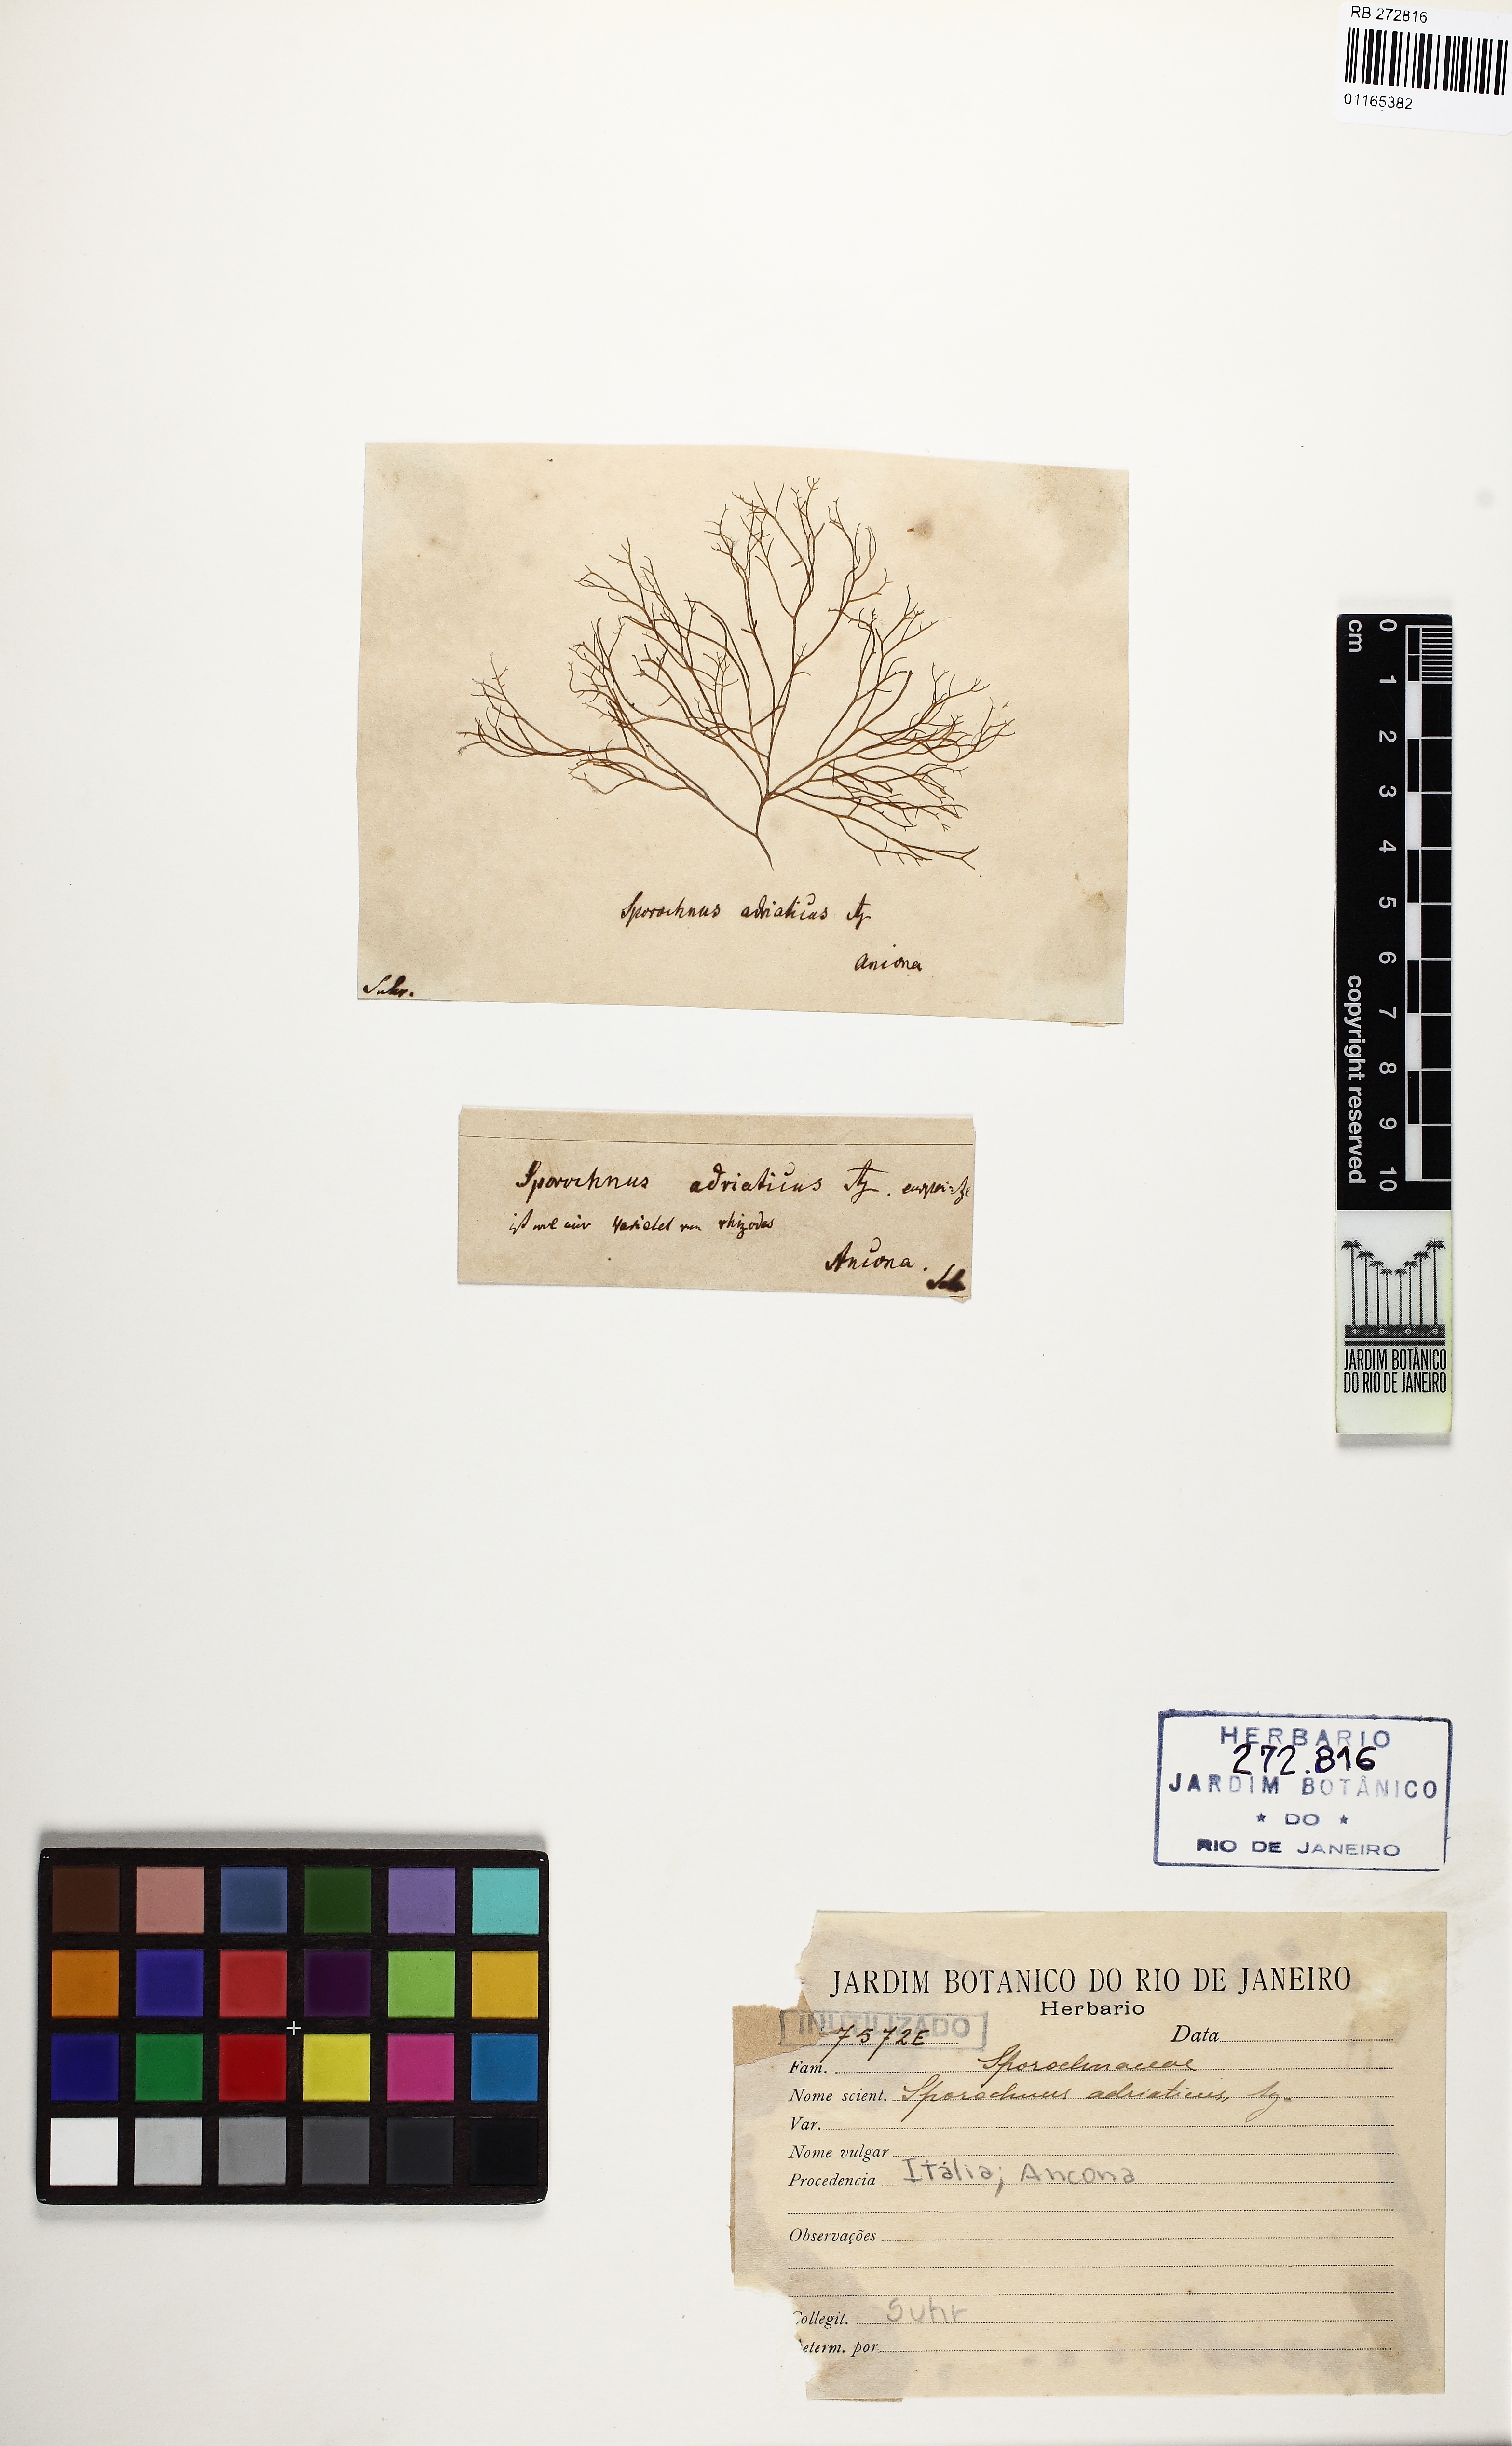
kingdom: Chromista
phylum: Ochrophyta
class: Phaeophyceae
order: Sporochnales
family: Sporochnaceae
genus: Sporochnus
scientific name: Sporochnus
